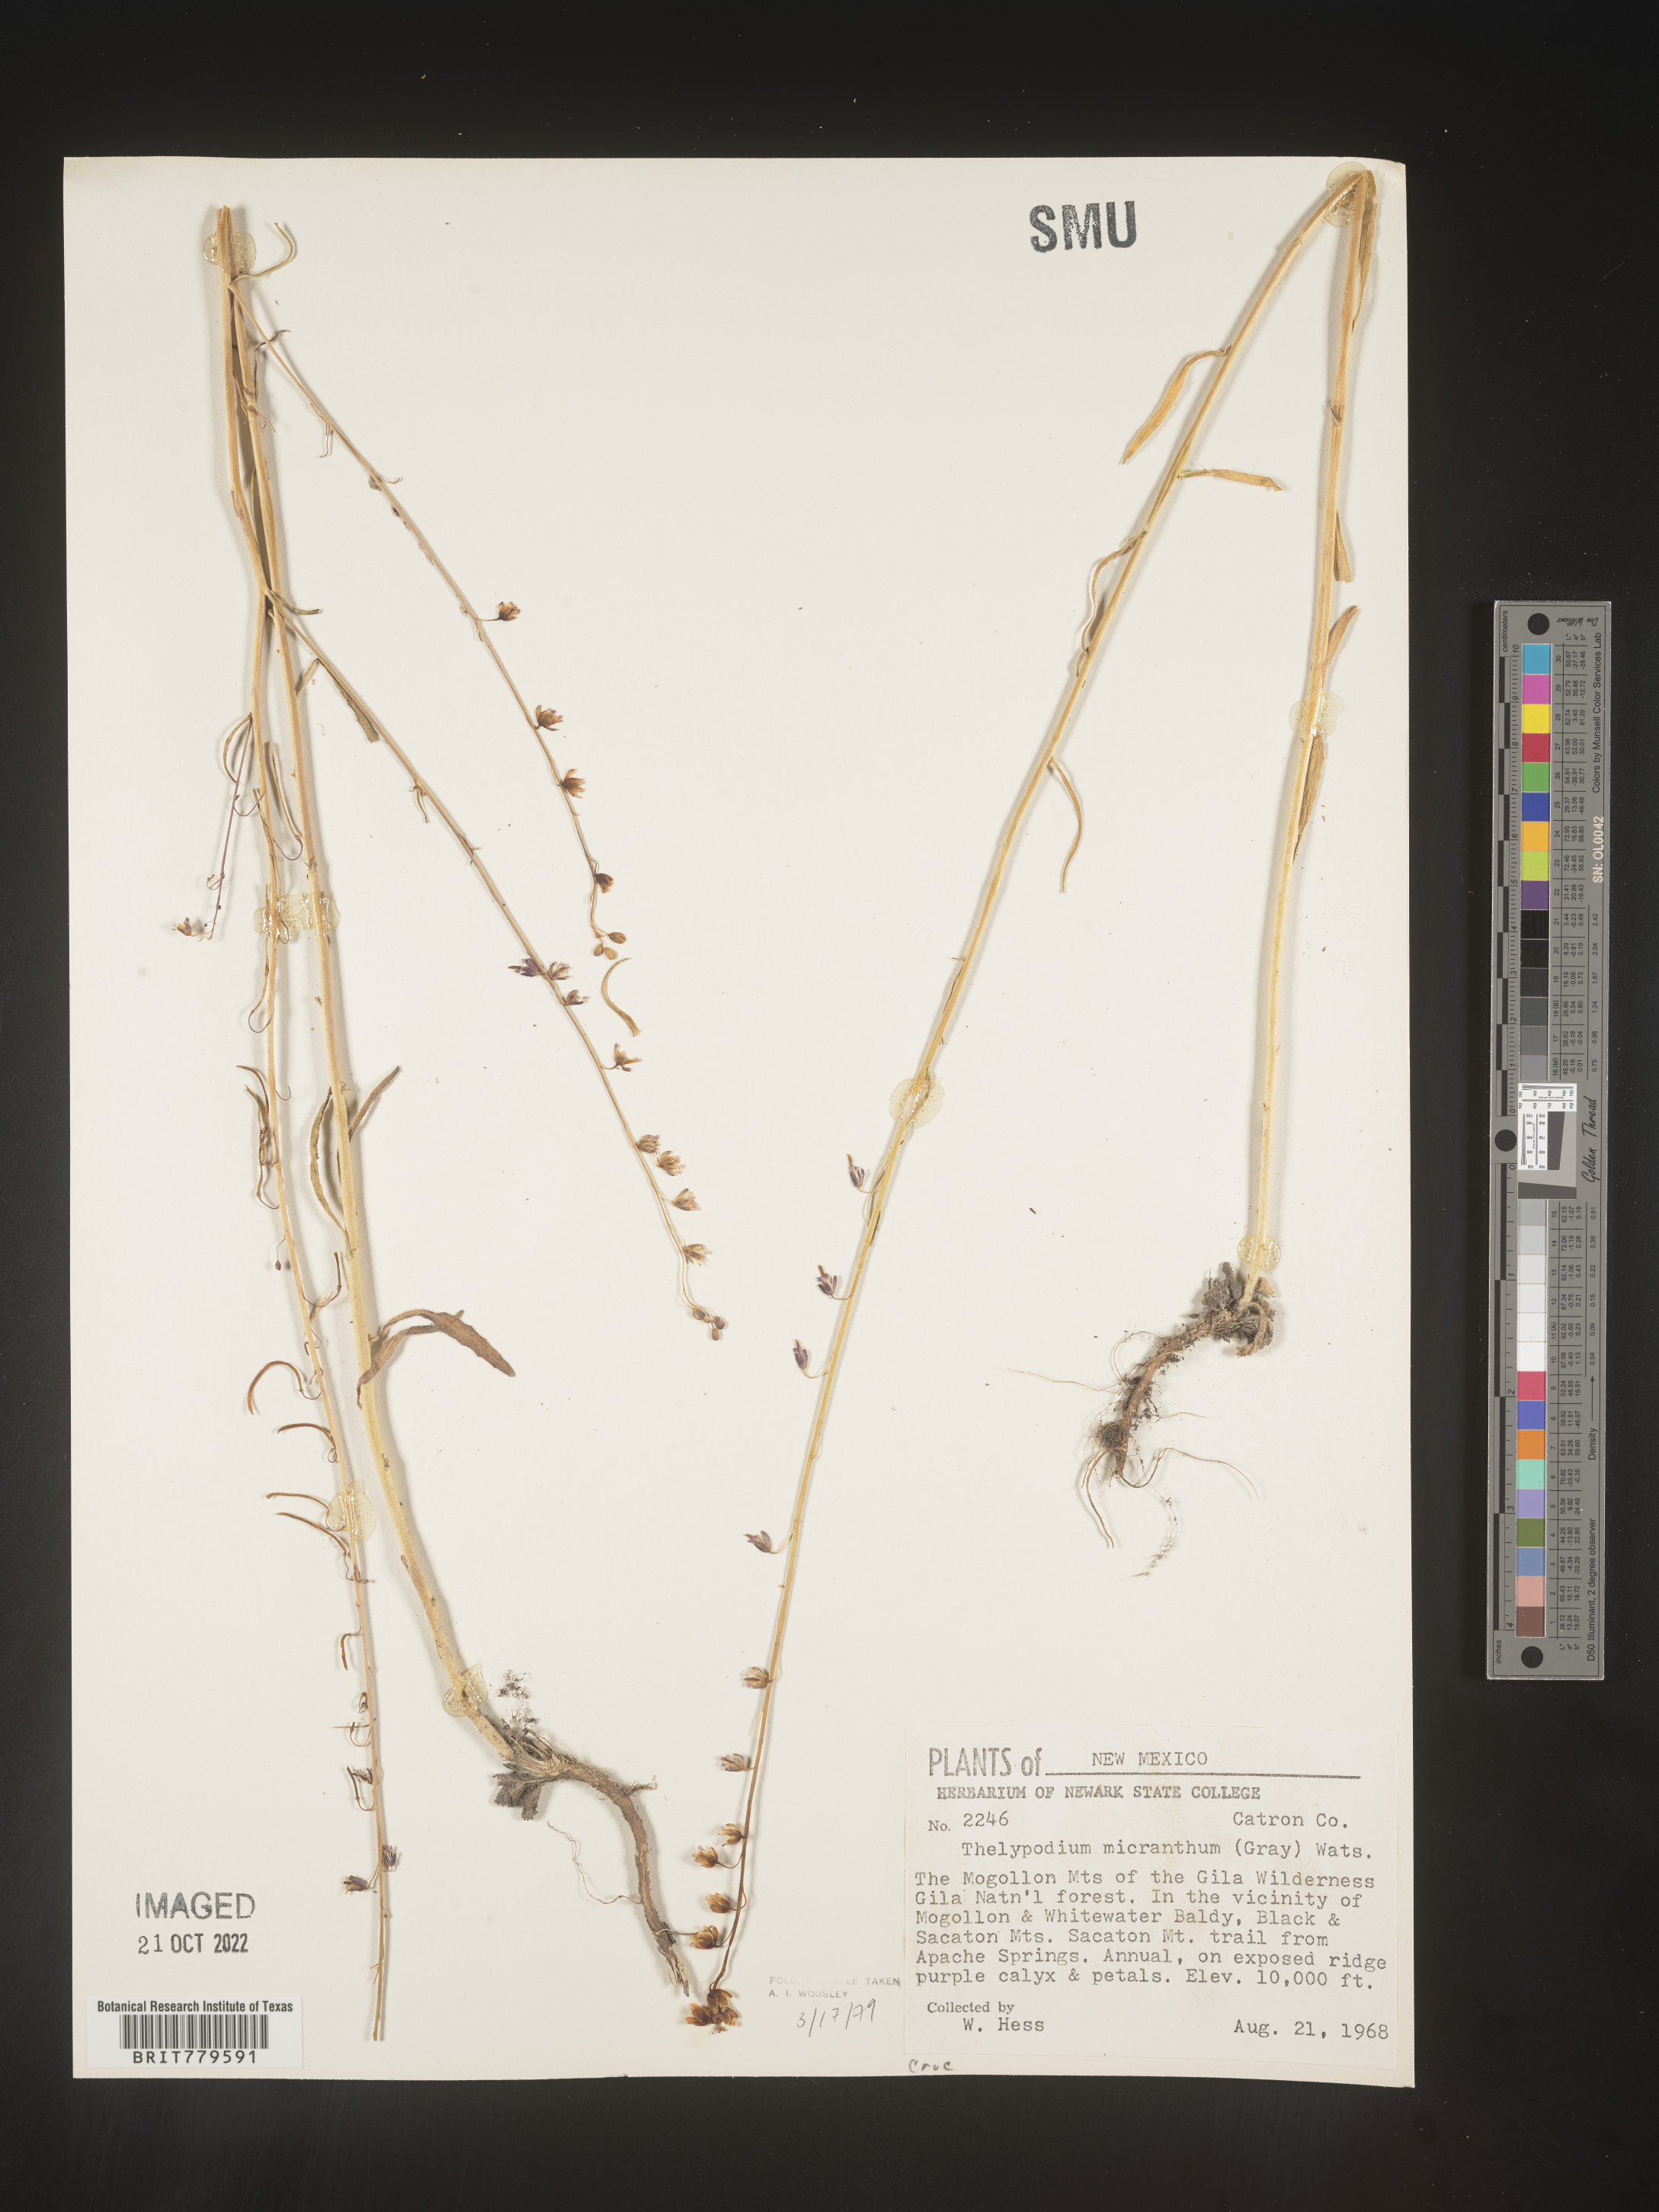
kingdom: Plantae
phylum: Tracheophyta
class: Magnoliopsida
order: Brassicales
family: Brassicaceae
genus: Thelypodium
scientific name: Thelypodium
